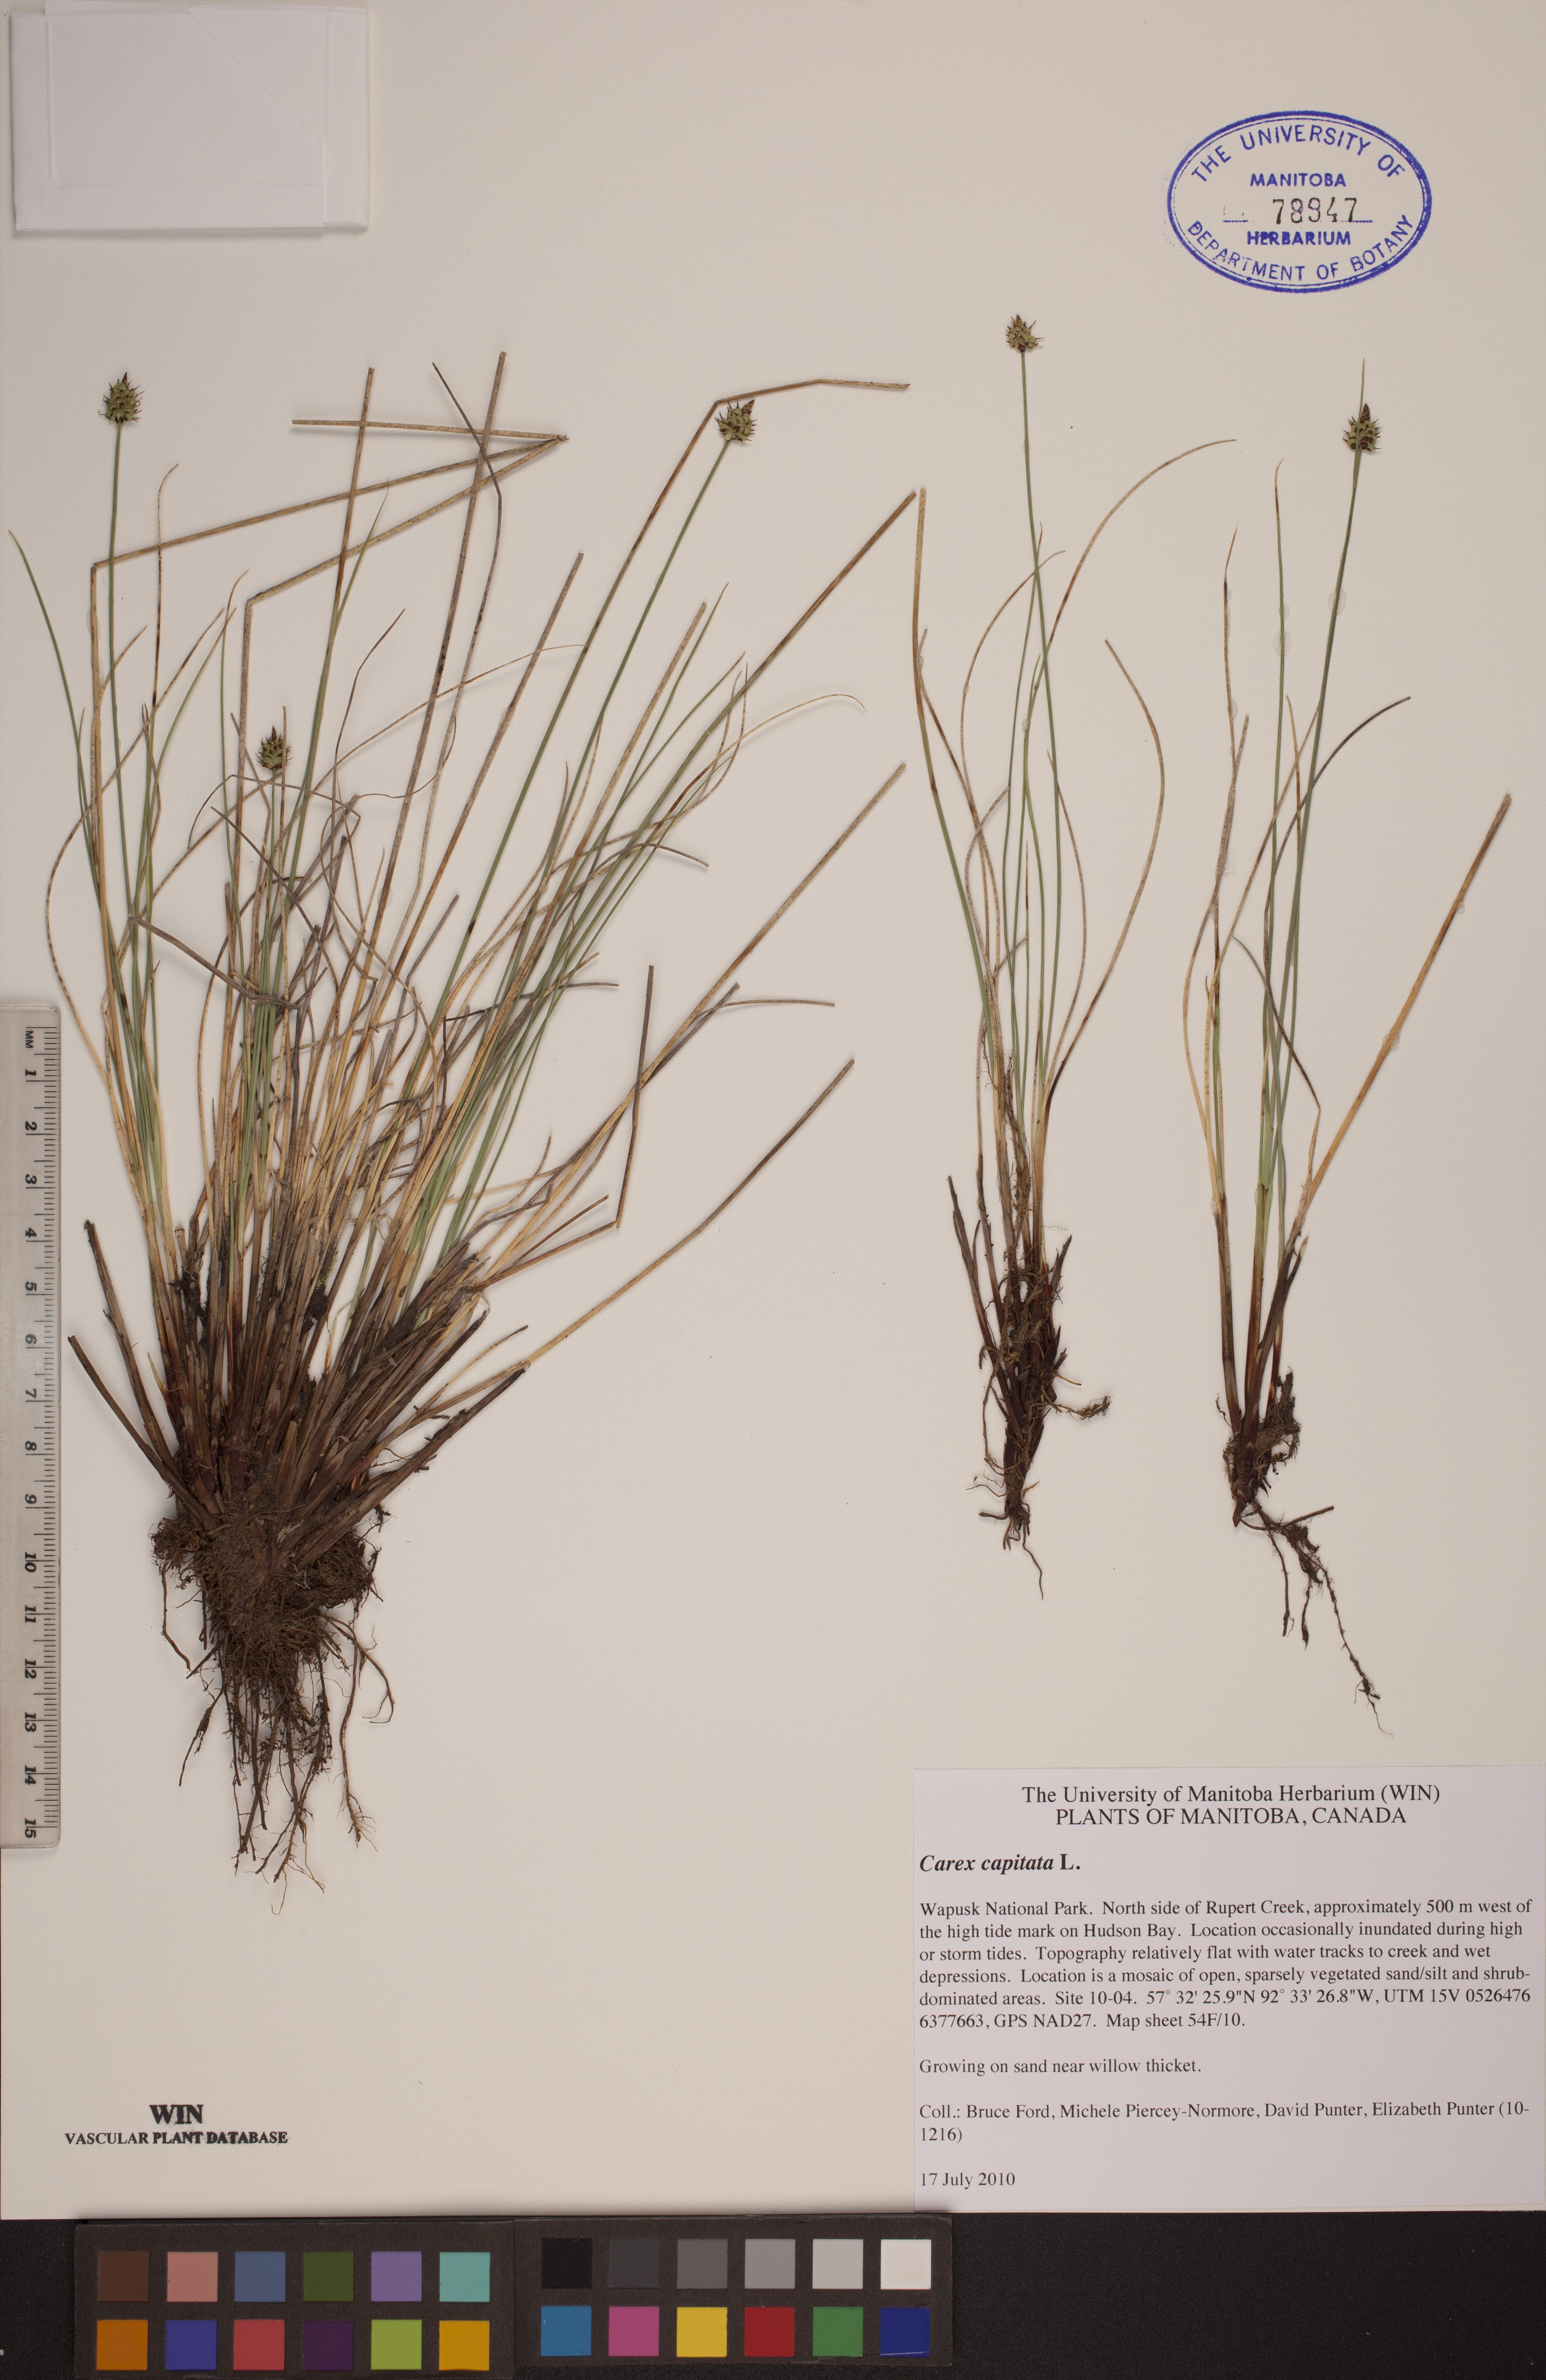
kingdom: Plantae
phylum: Tracheophyta
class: Liliopsida
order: Poales
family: Cyperaceae
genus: Carex
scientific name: Carex capitata
